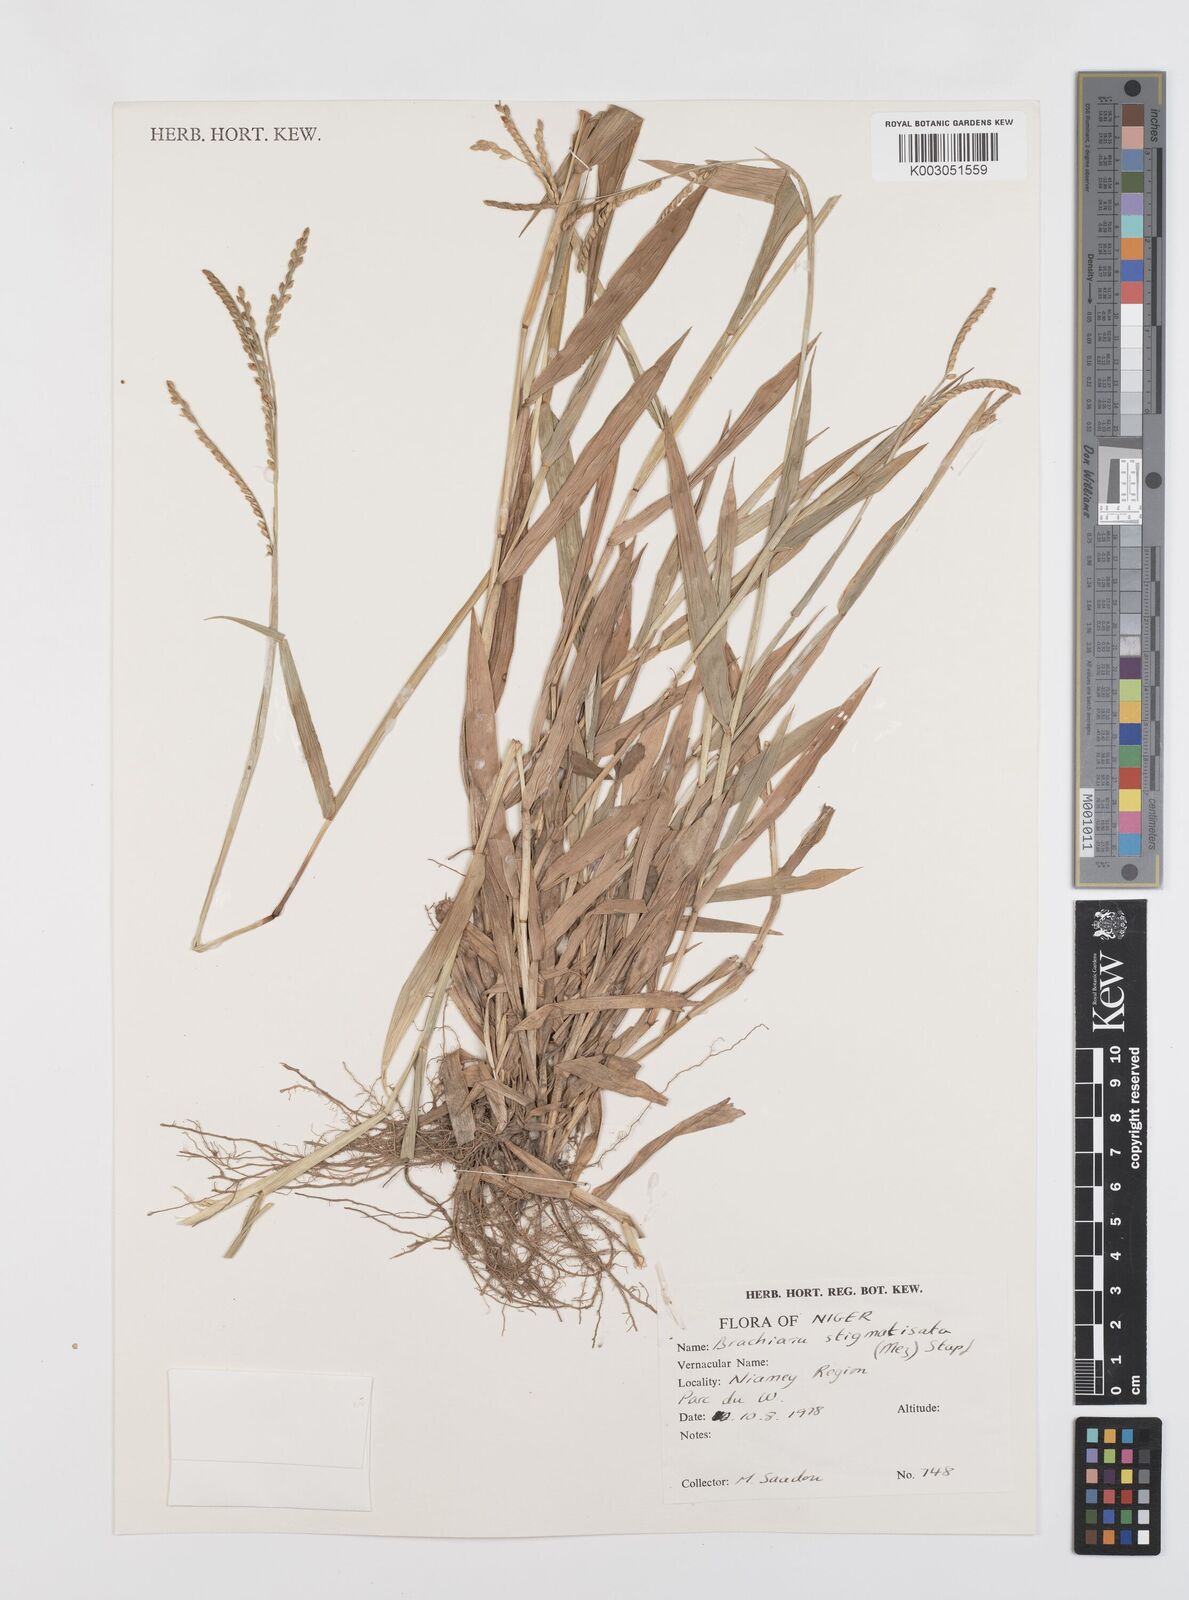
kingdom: Plantae
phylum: Tracheophyta
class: Liliopsida
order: Poales
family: Poaceae
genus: Urochloa
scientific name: Urochloa stigmatisata
